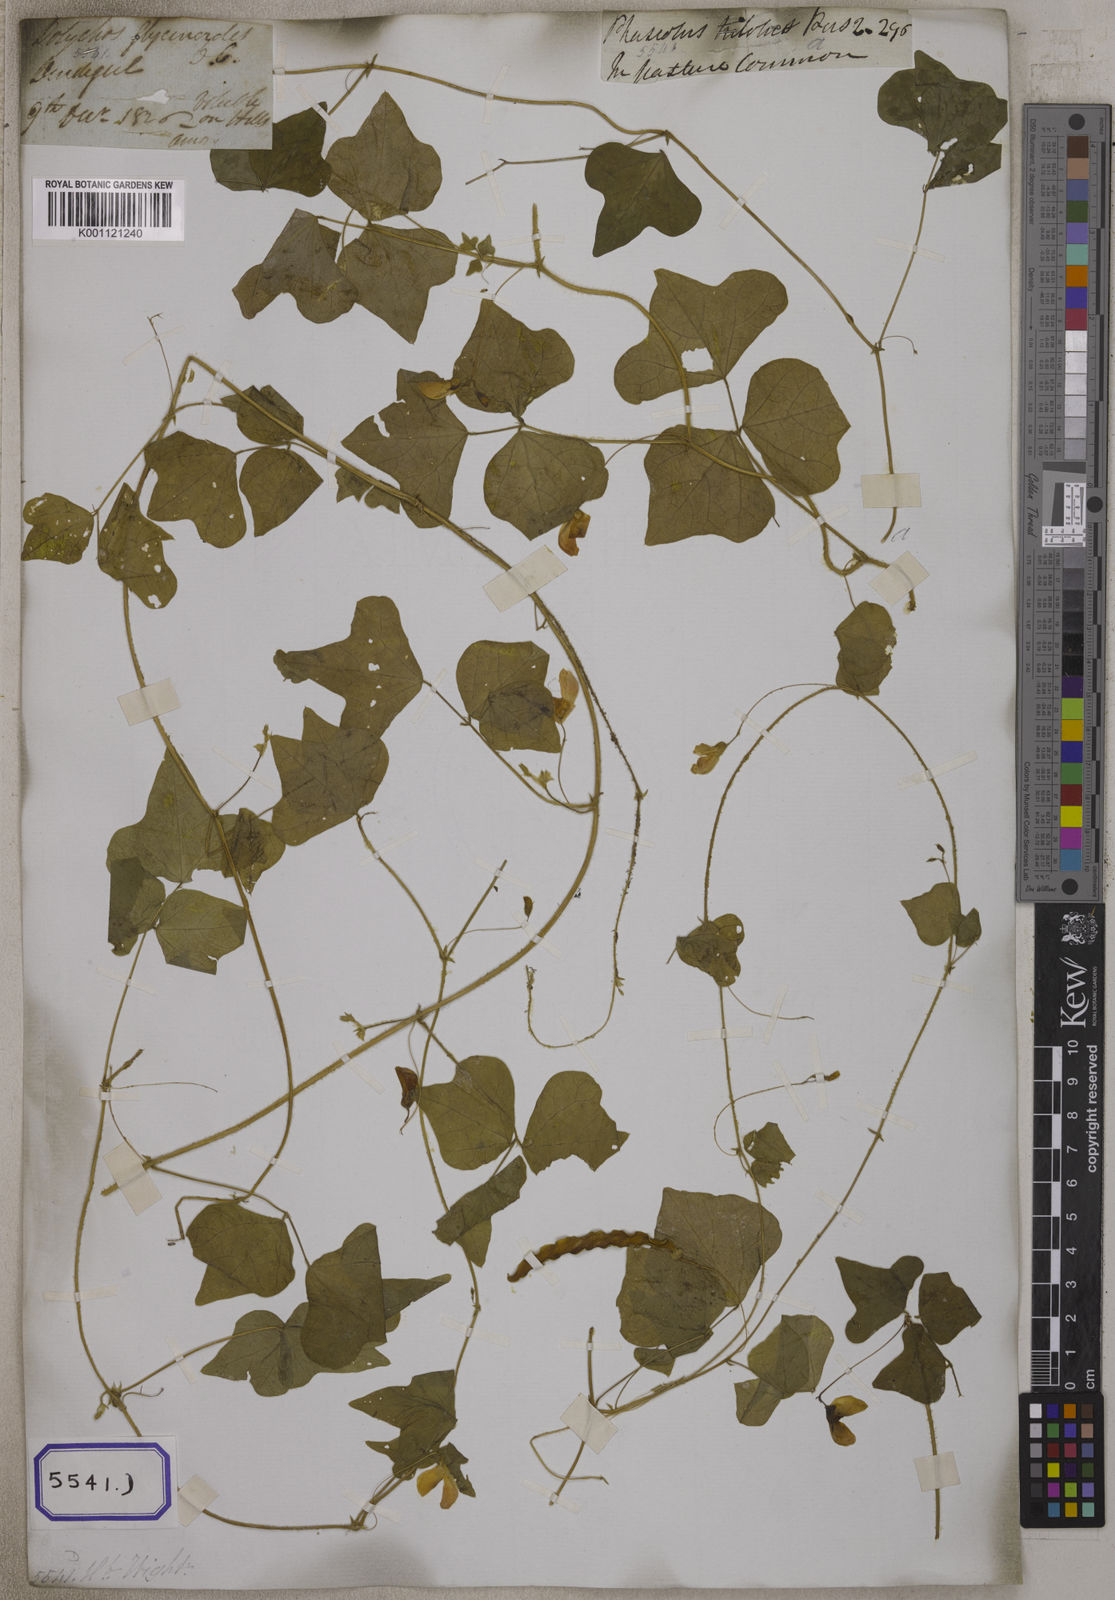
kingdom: Plantae
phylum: Tracheophyta
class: Magnoliopsida
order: Fabales
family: Fabaceae
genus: Dolichos
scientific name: Dolichos
